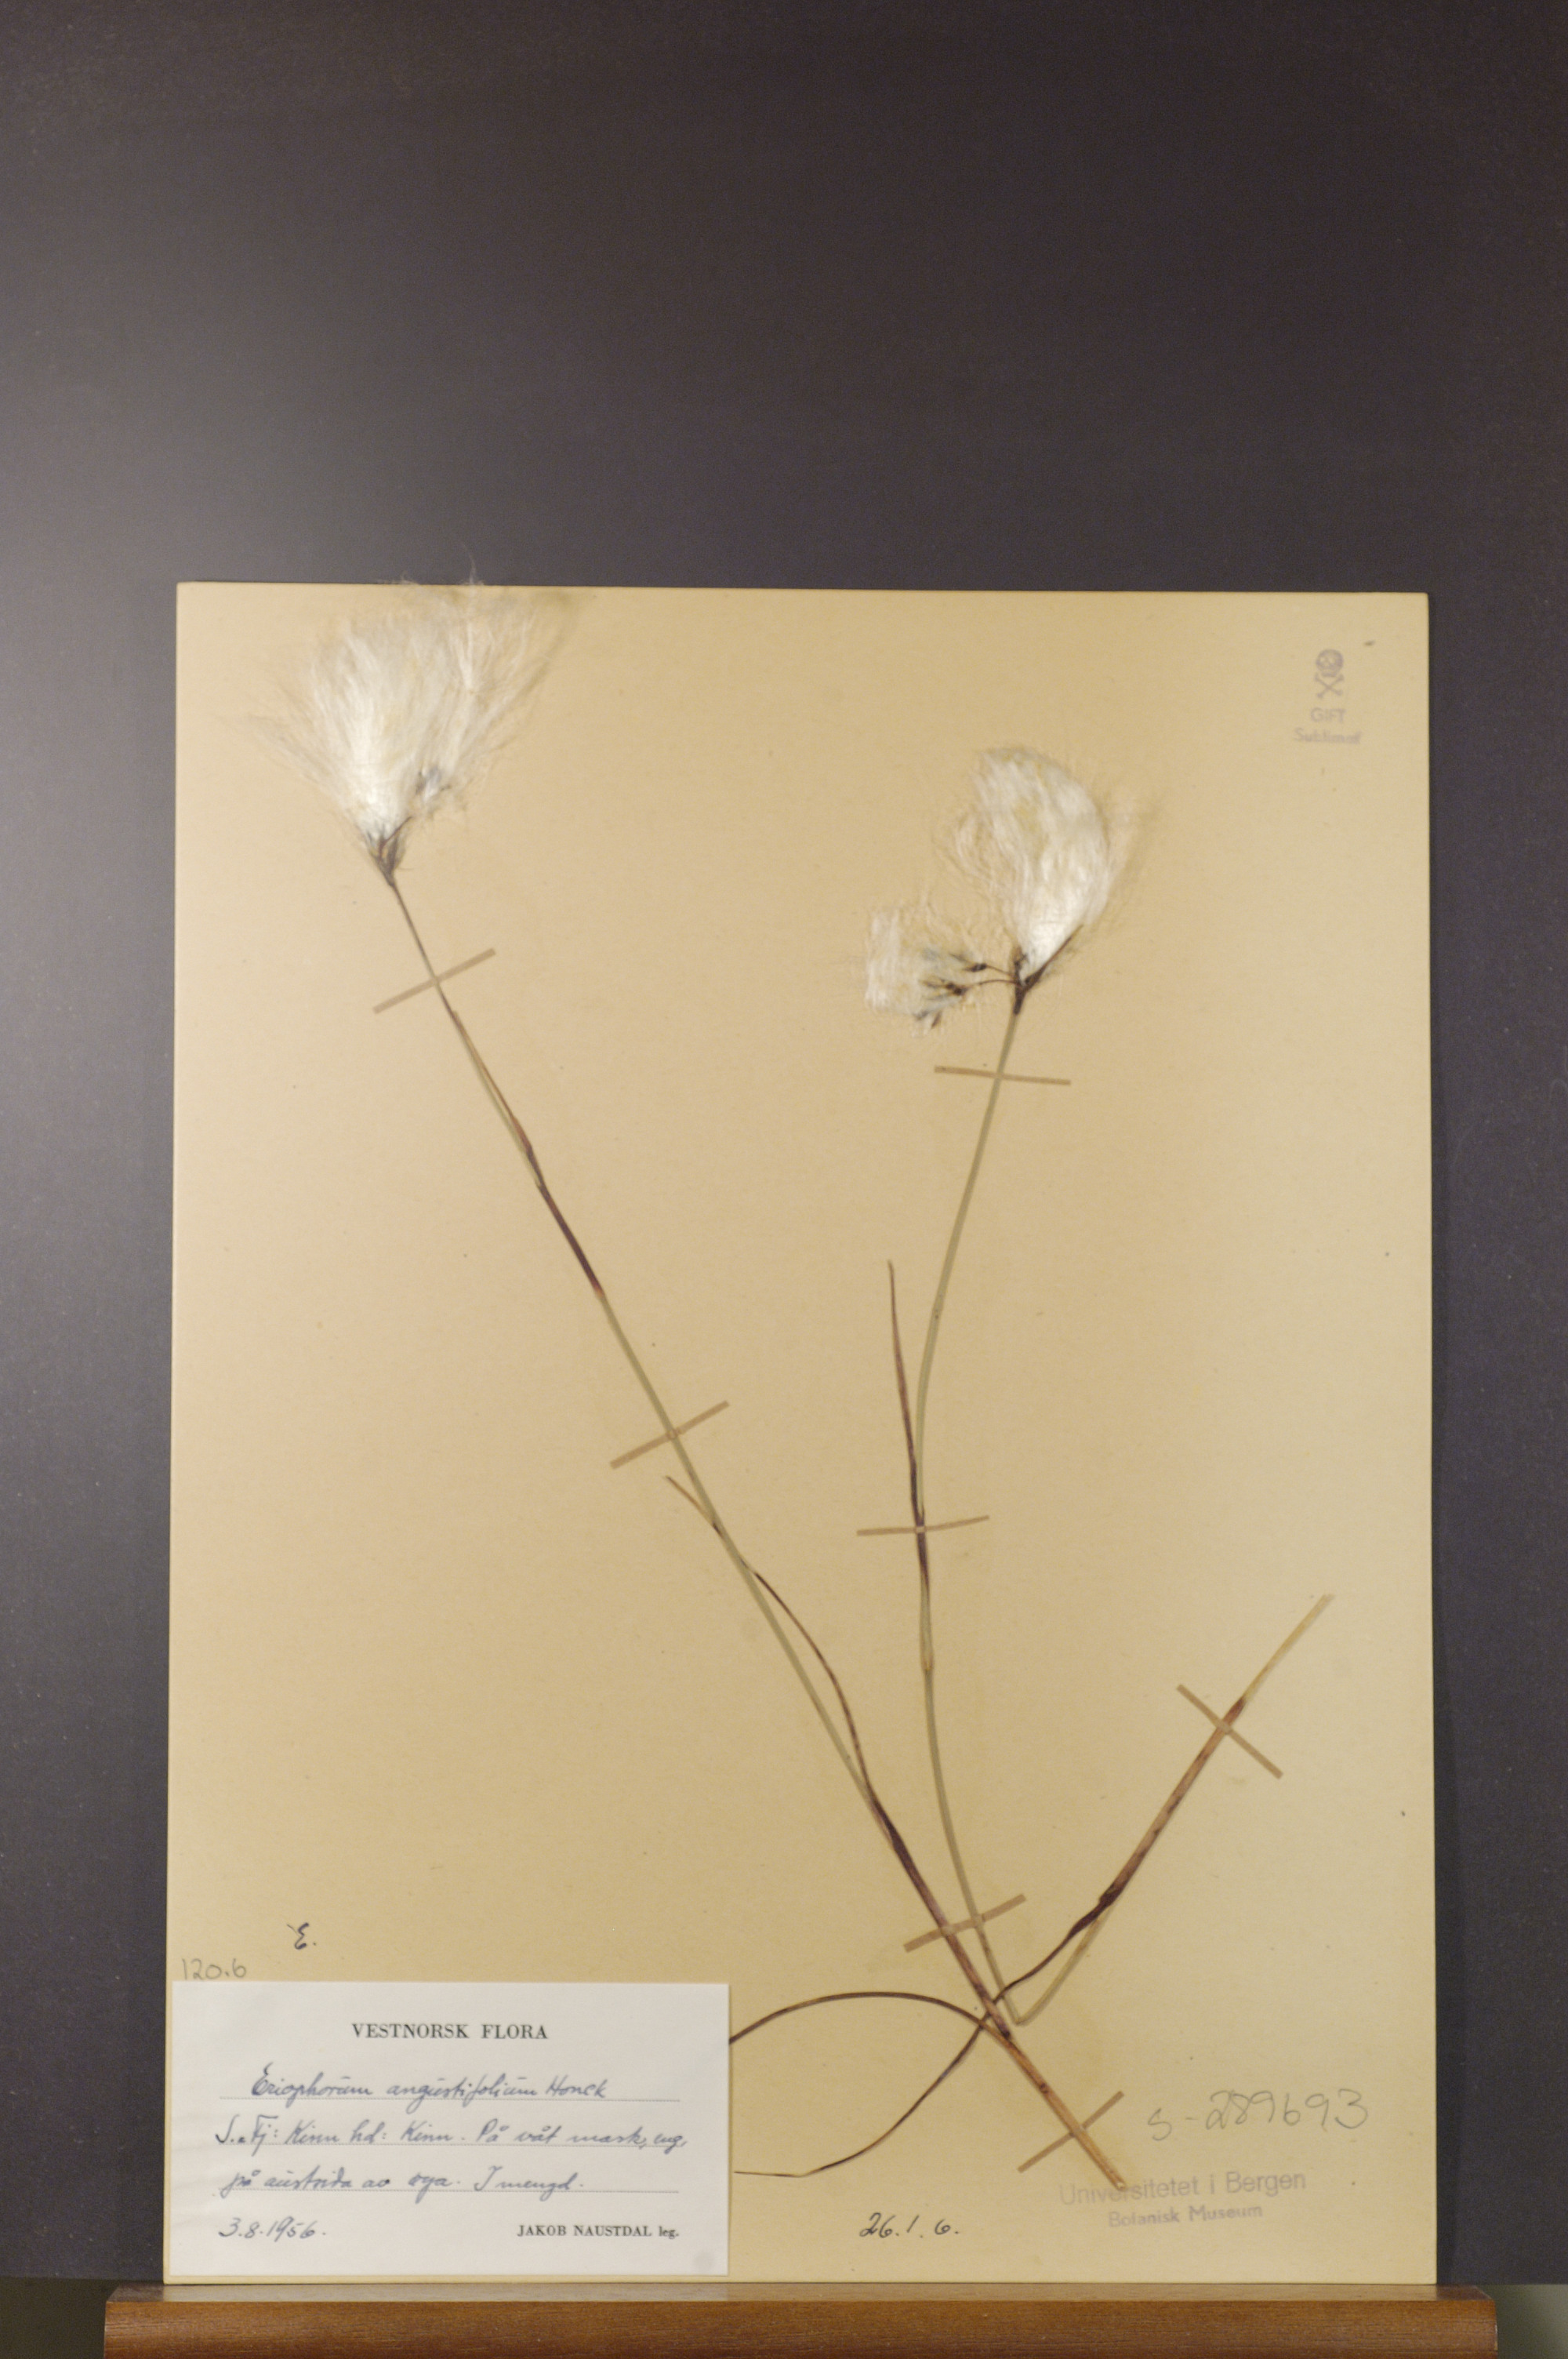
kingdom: Plantae
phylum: Tracheophyta
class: Liliopsida
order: Poales
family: Cyperaceae
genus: Eriophorum
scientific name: Eriophorum angustifolium
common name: Common cottongrass
